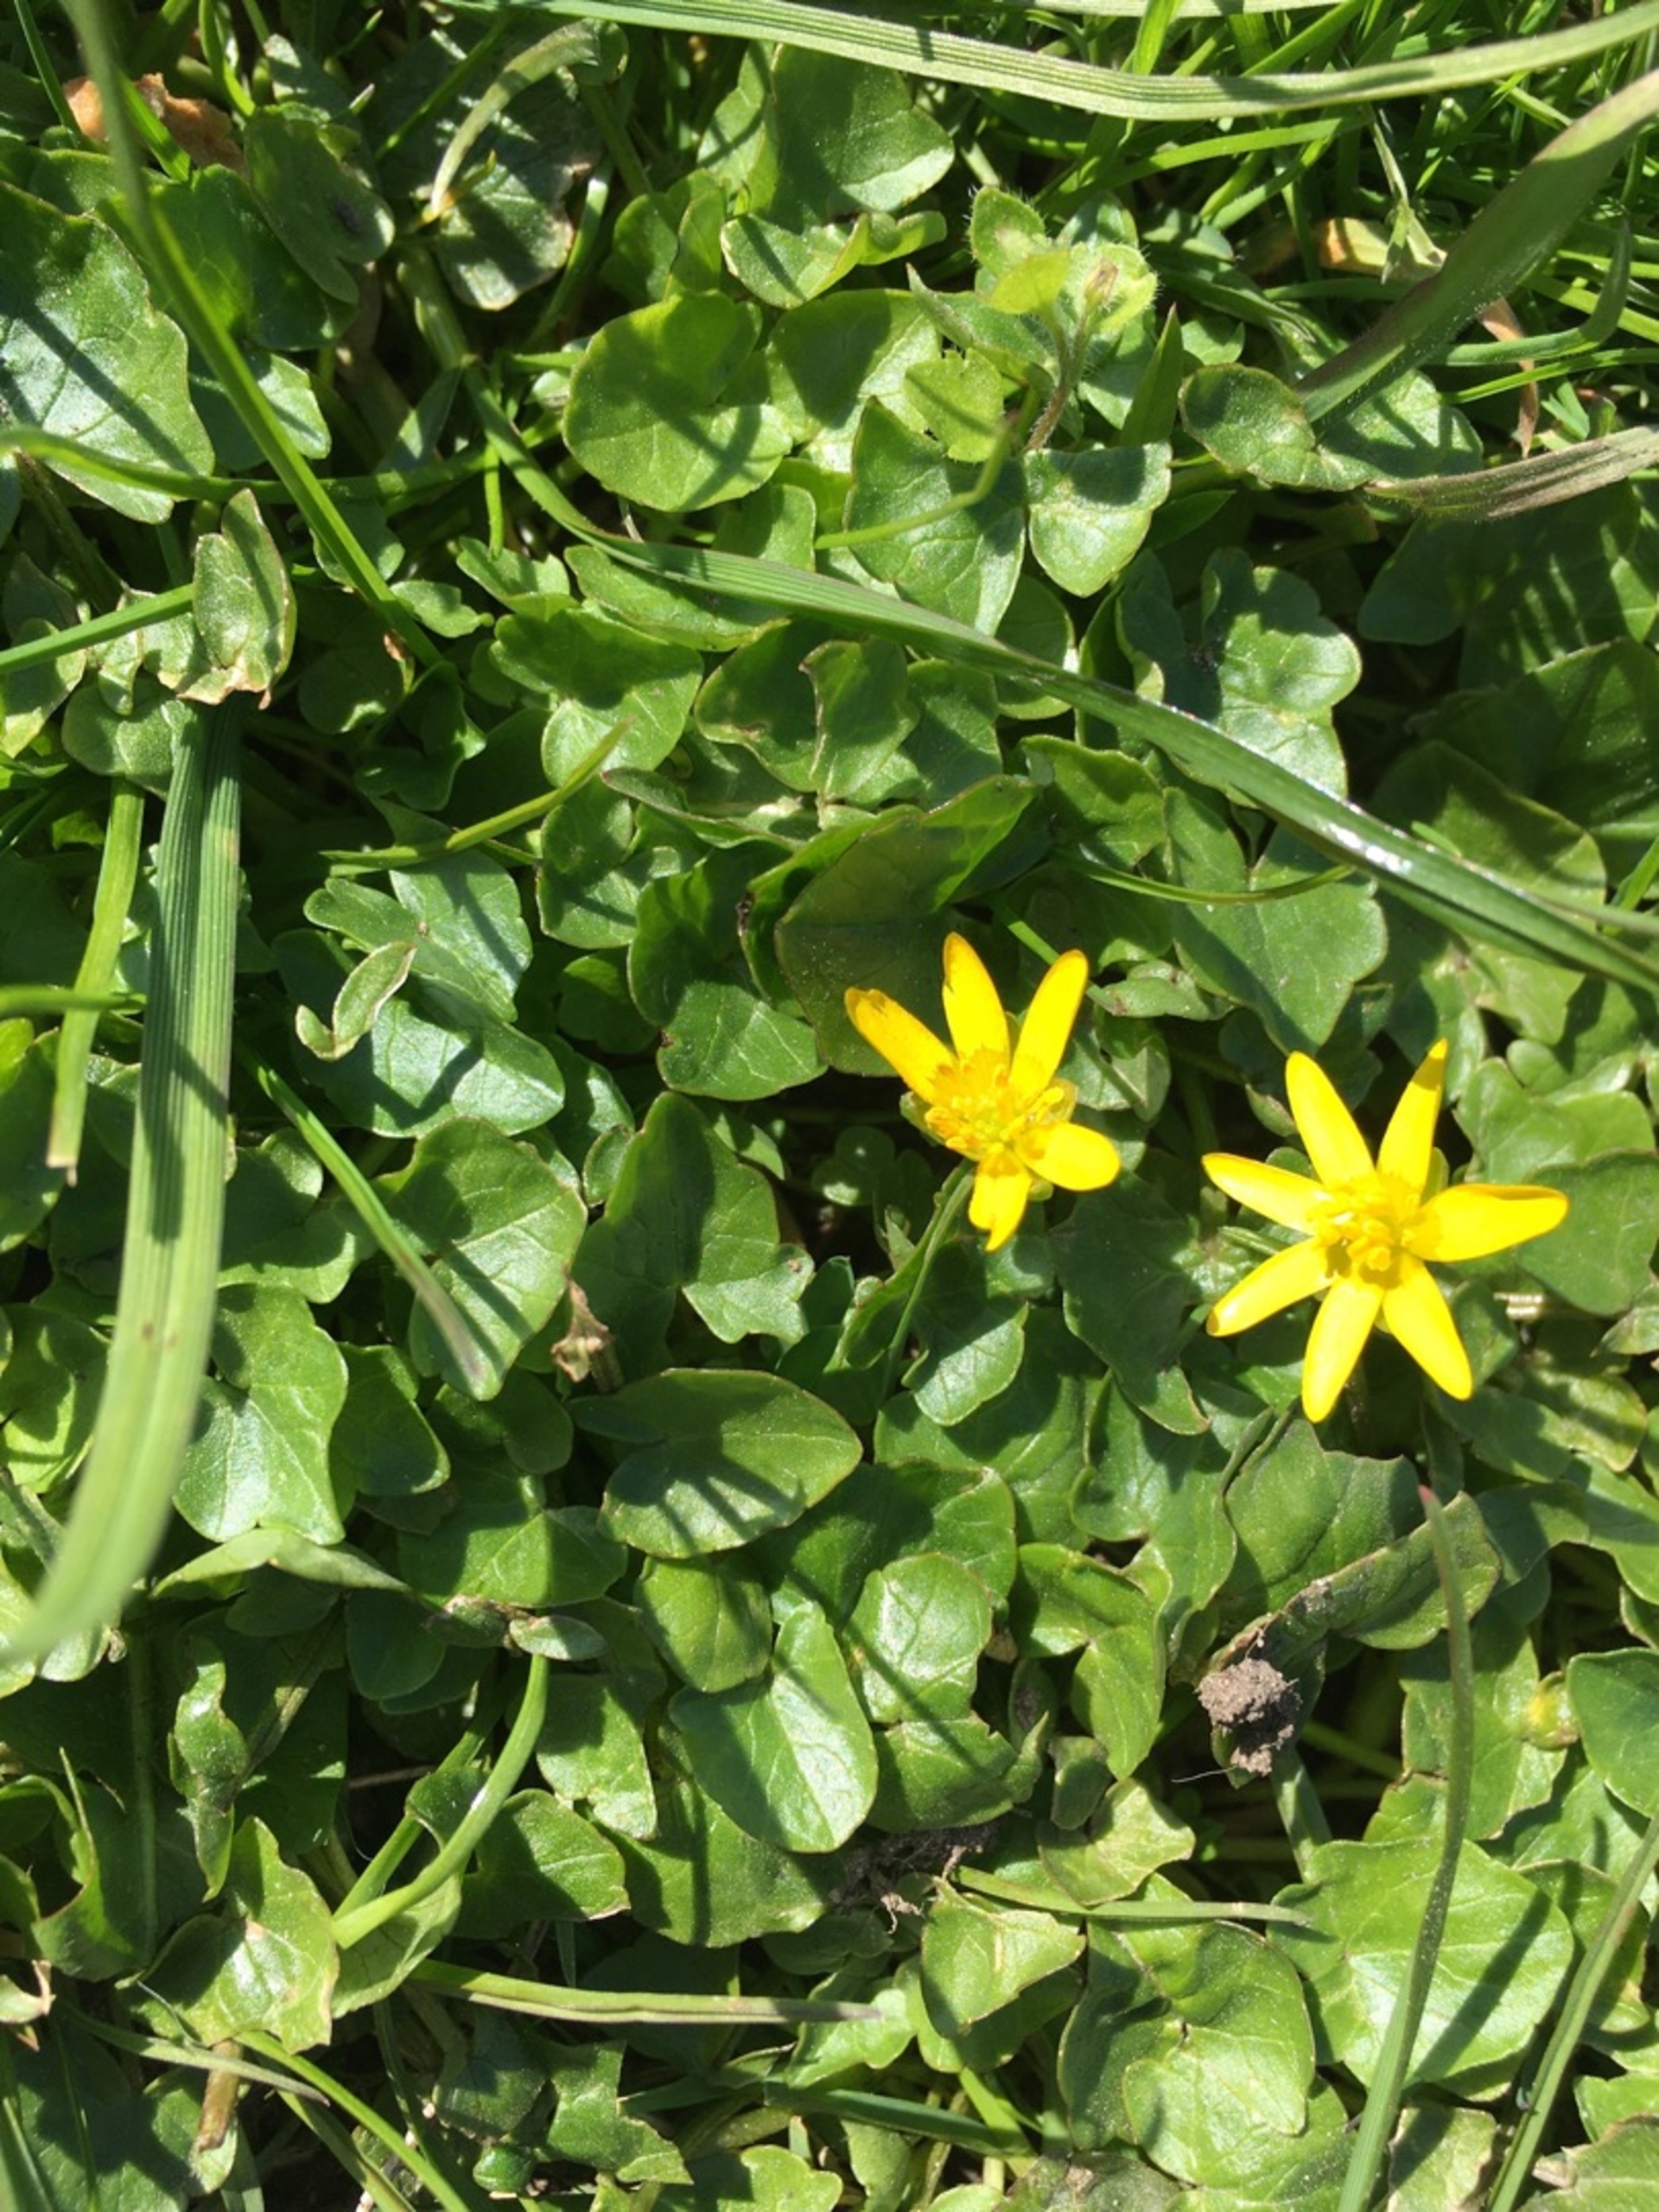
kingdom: Plantae
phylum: Tracheophyta
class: Magnoliopsida
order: Ranunculales
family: Ranunculaceae
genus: Ficaria
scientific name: Ficaria verna
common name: Vorterod
